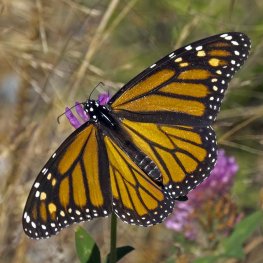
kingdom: Animalia
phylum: Arthropoda
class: Insecta
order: Lepidoptera
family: Nymphalidae
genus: Danaus
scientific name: Danaus plexippus
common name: Monarch
